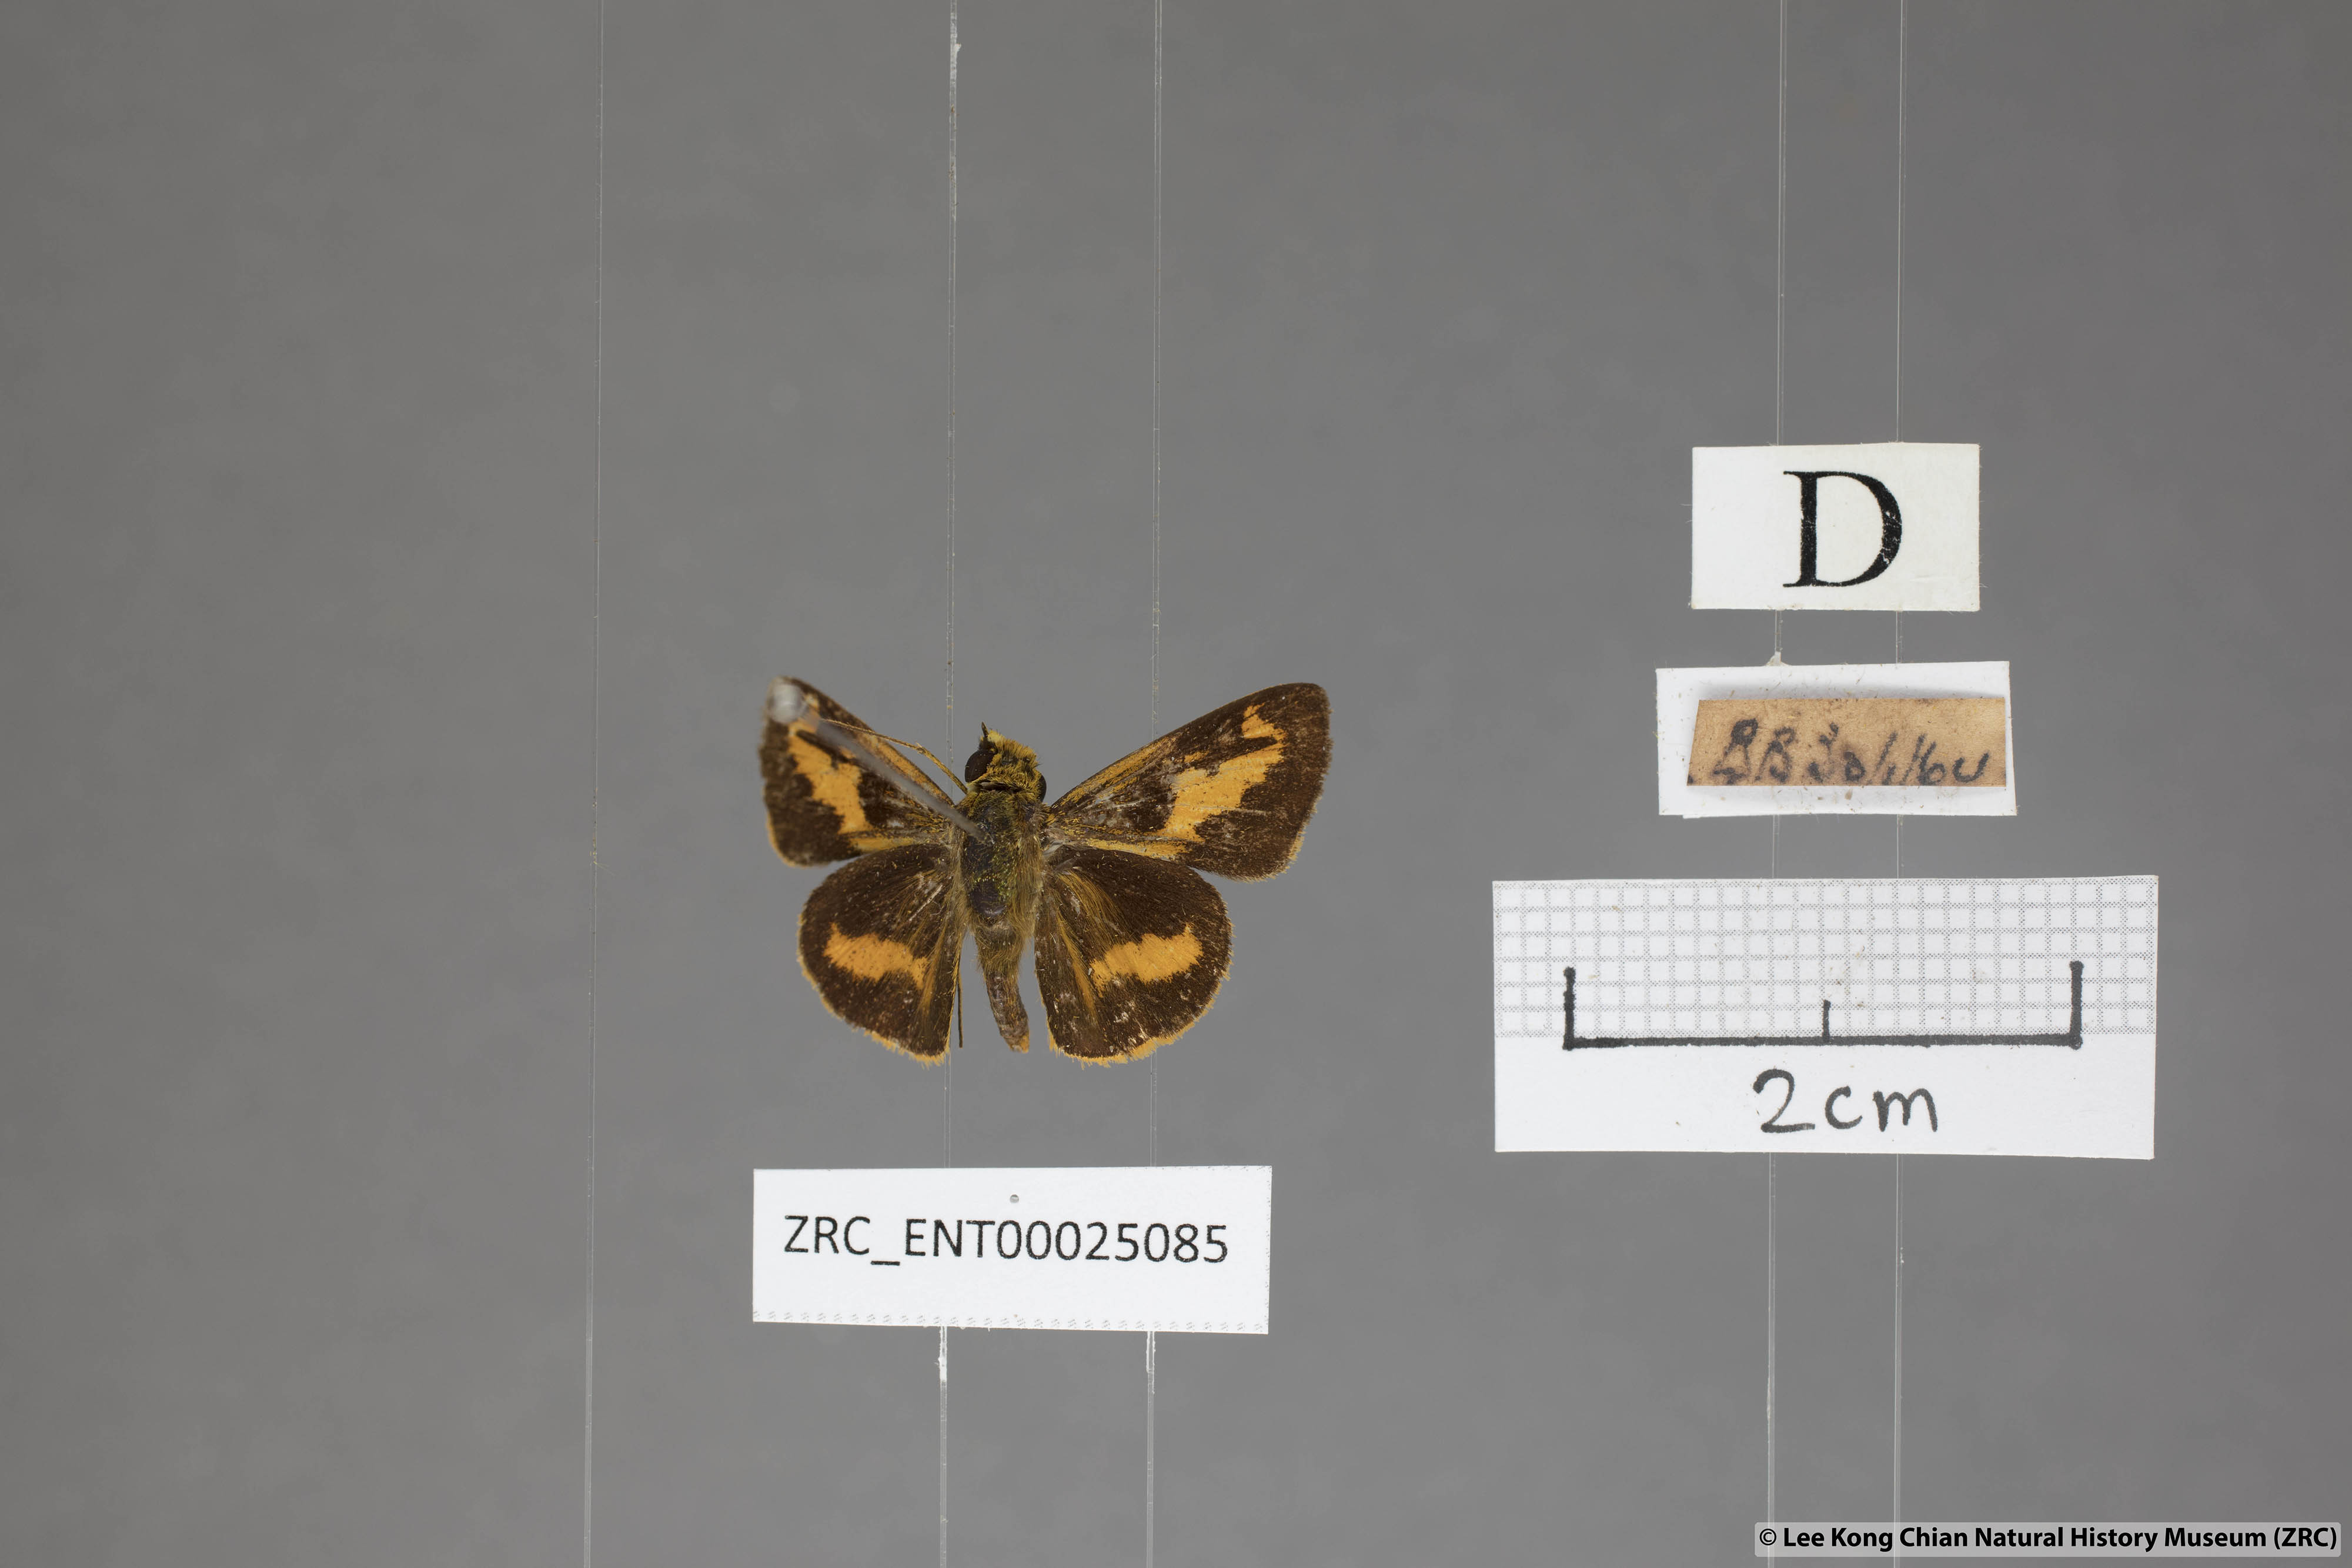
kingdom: Animalia
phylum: Arthropoda
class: Insecta
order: Lepidoptera
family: Hesperiidae
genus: Oriens
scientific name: Oriens gola
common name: Common dartlet
